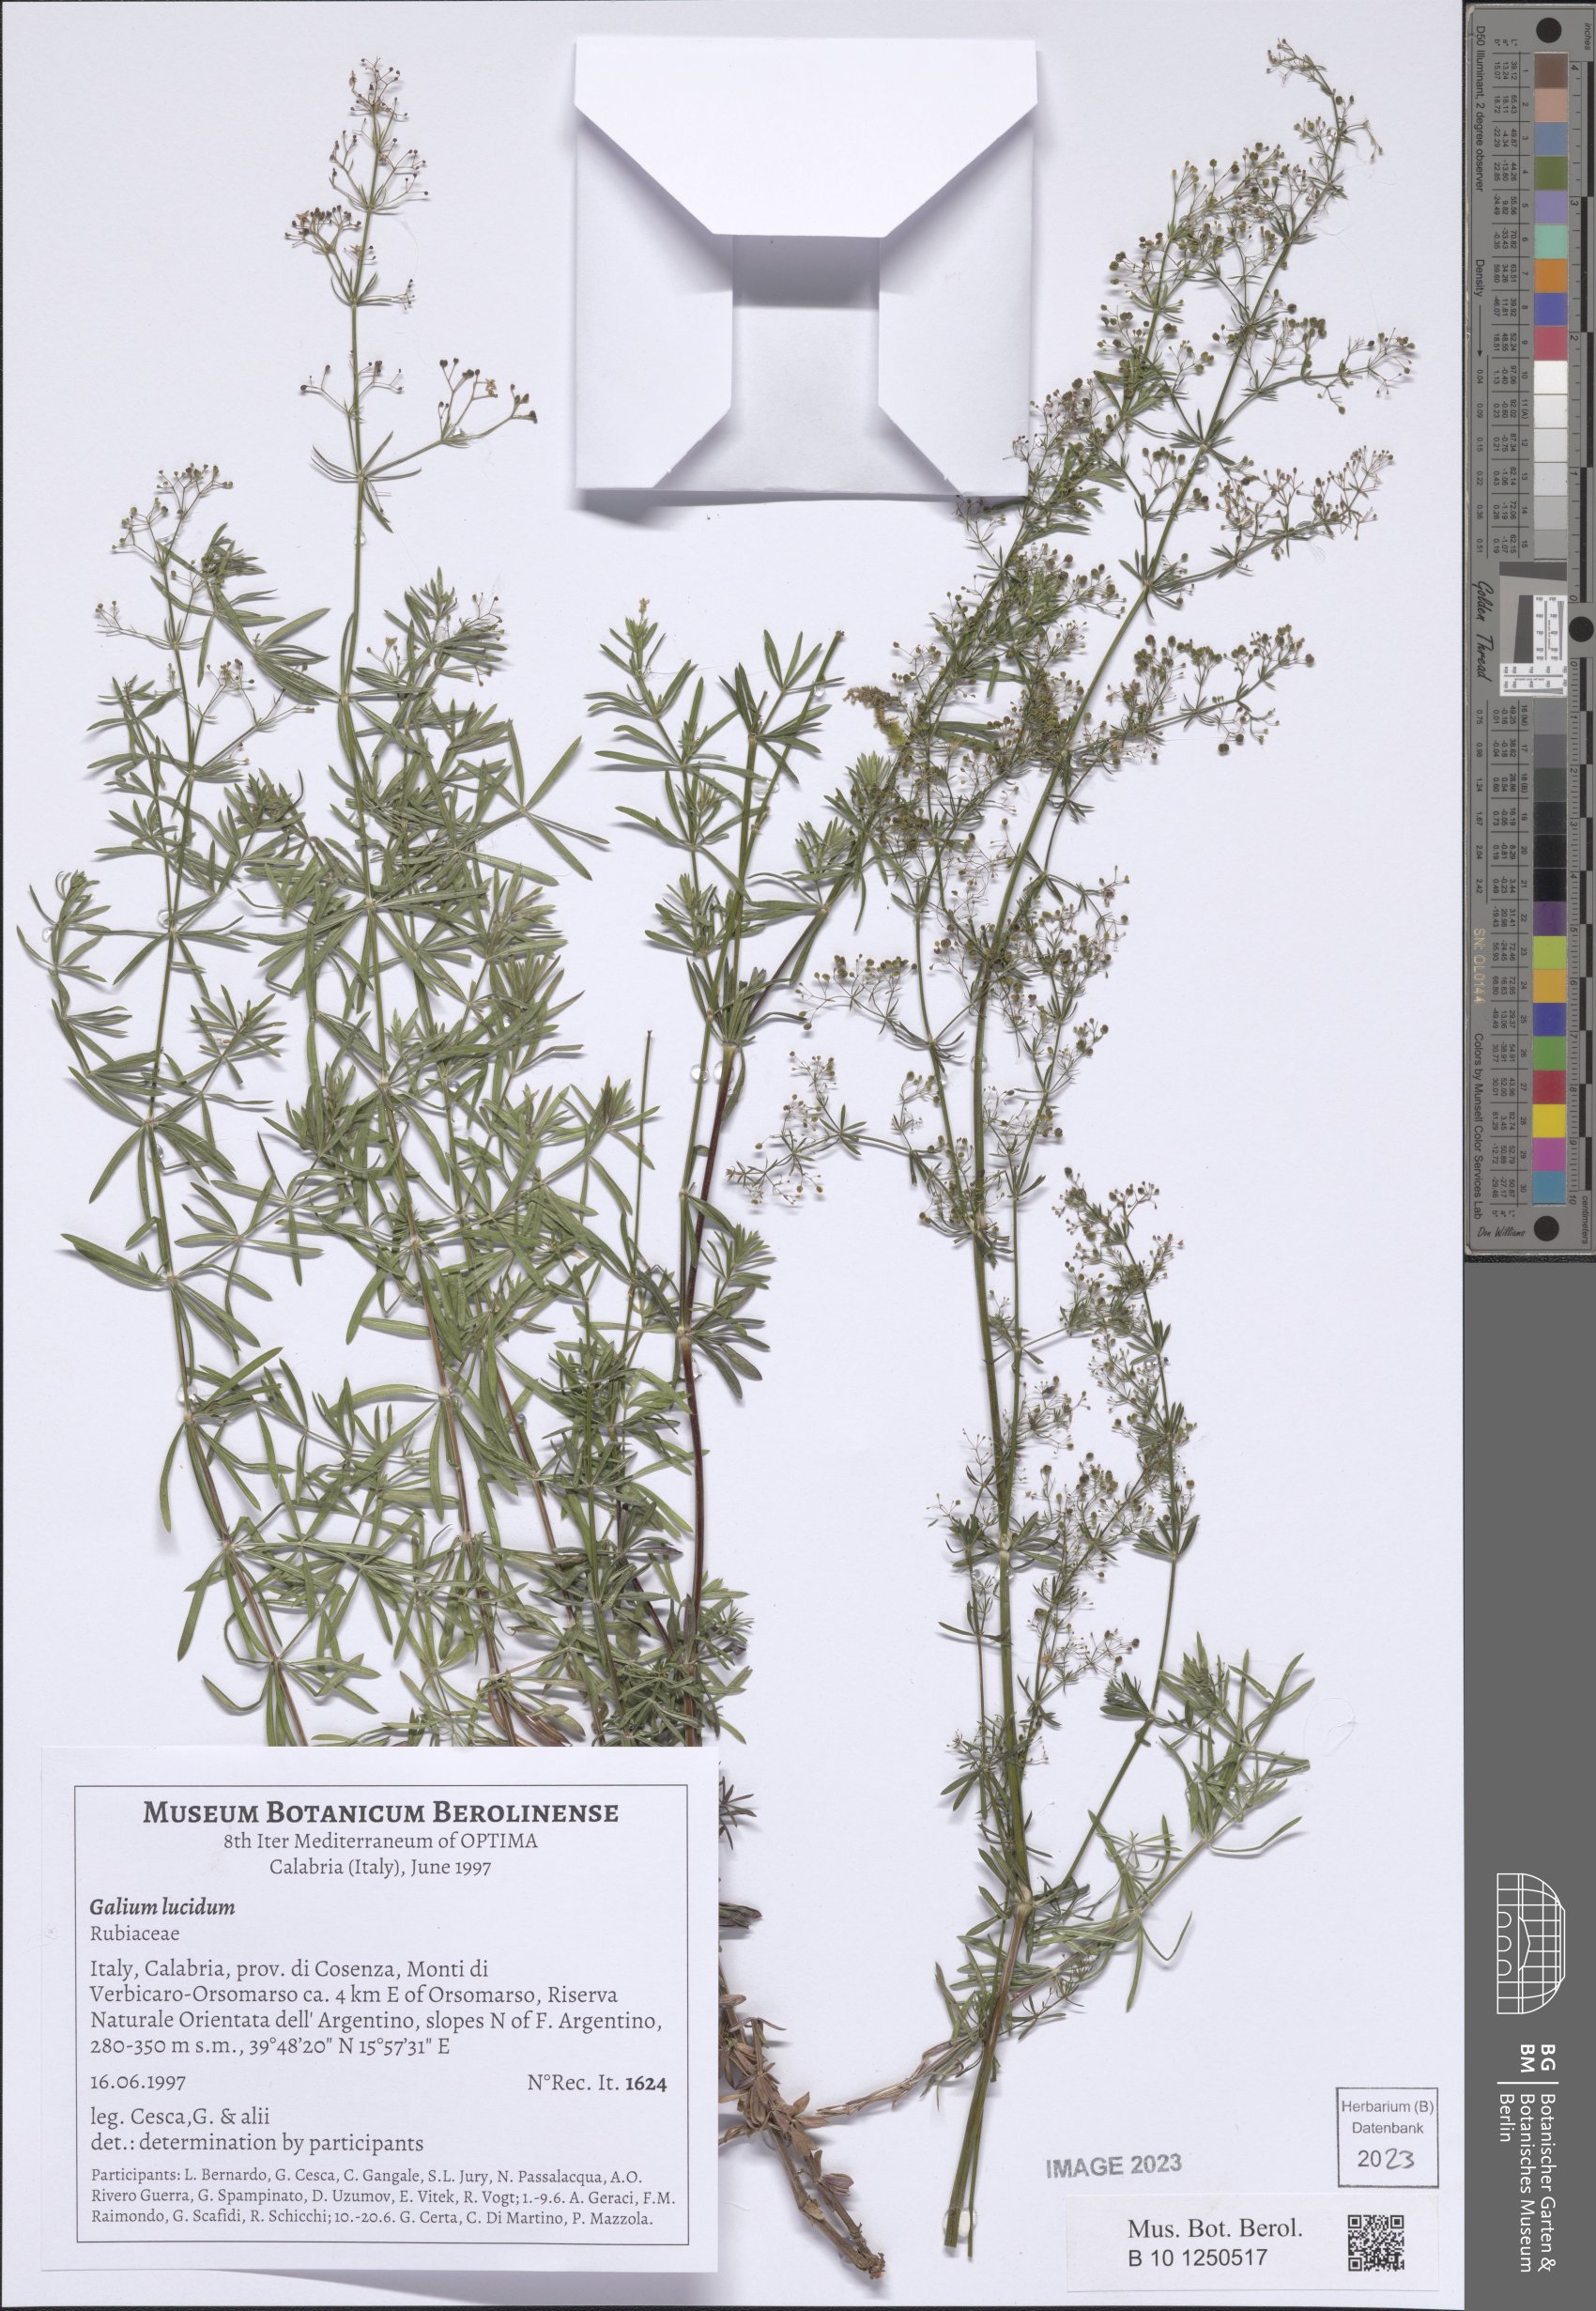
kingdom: Plantae
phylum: Tracheophyta
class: Magnoliopsida
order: Gentianales
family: Rubiaceae
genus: Galium
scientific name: Galium lucidum
